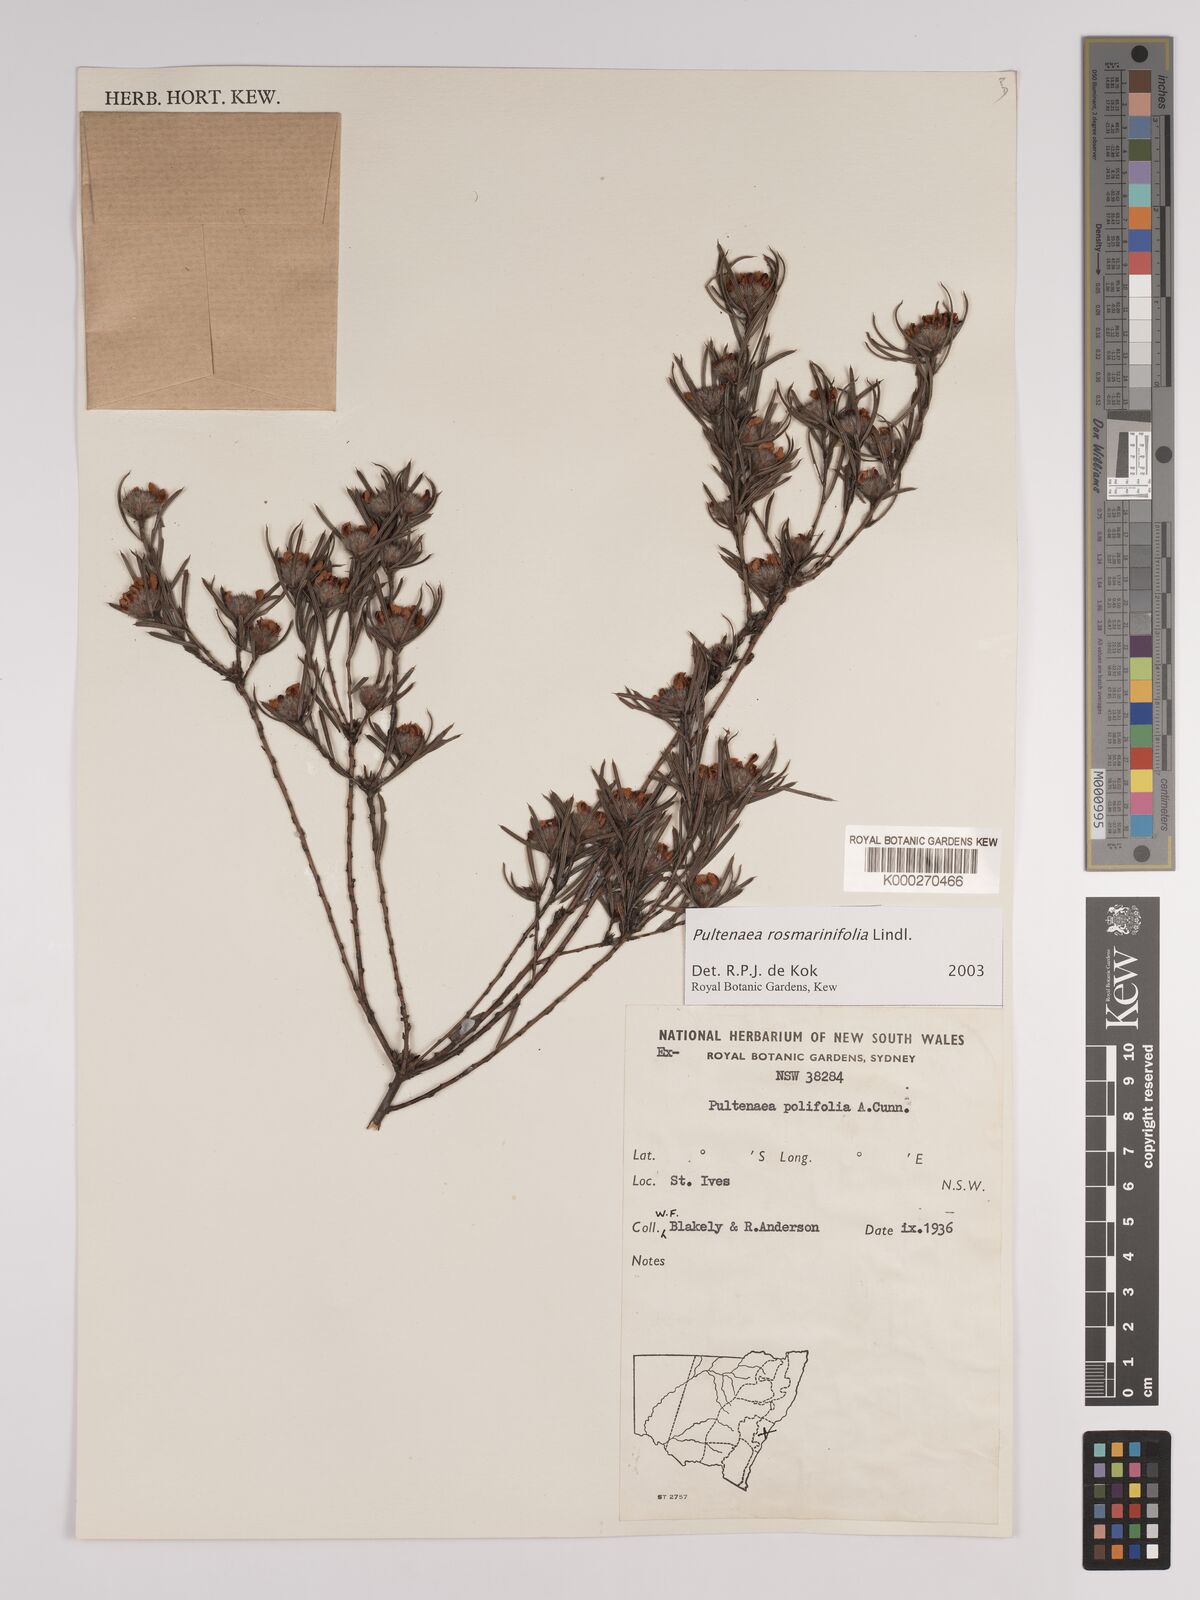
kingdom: Plantae
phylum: Tracheophyta
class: Magnoliopsida
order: Sapindales
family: Meliaceae
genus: Chisocheton
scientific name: Chisocheton pohlianus
